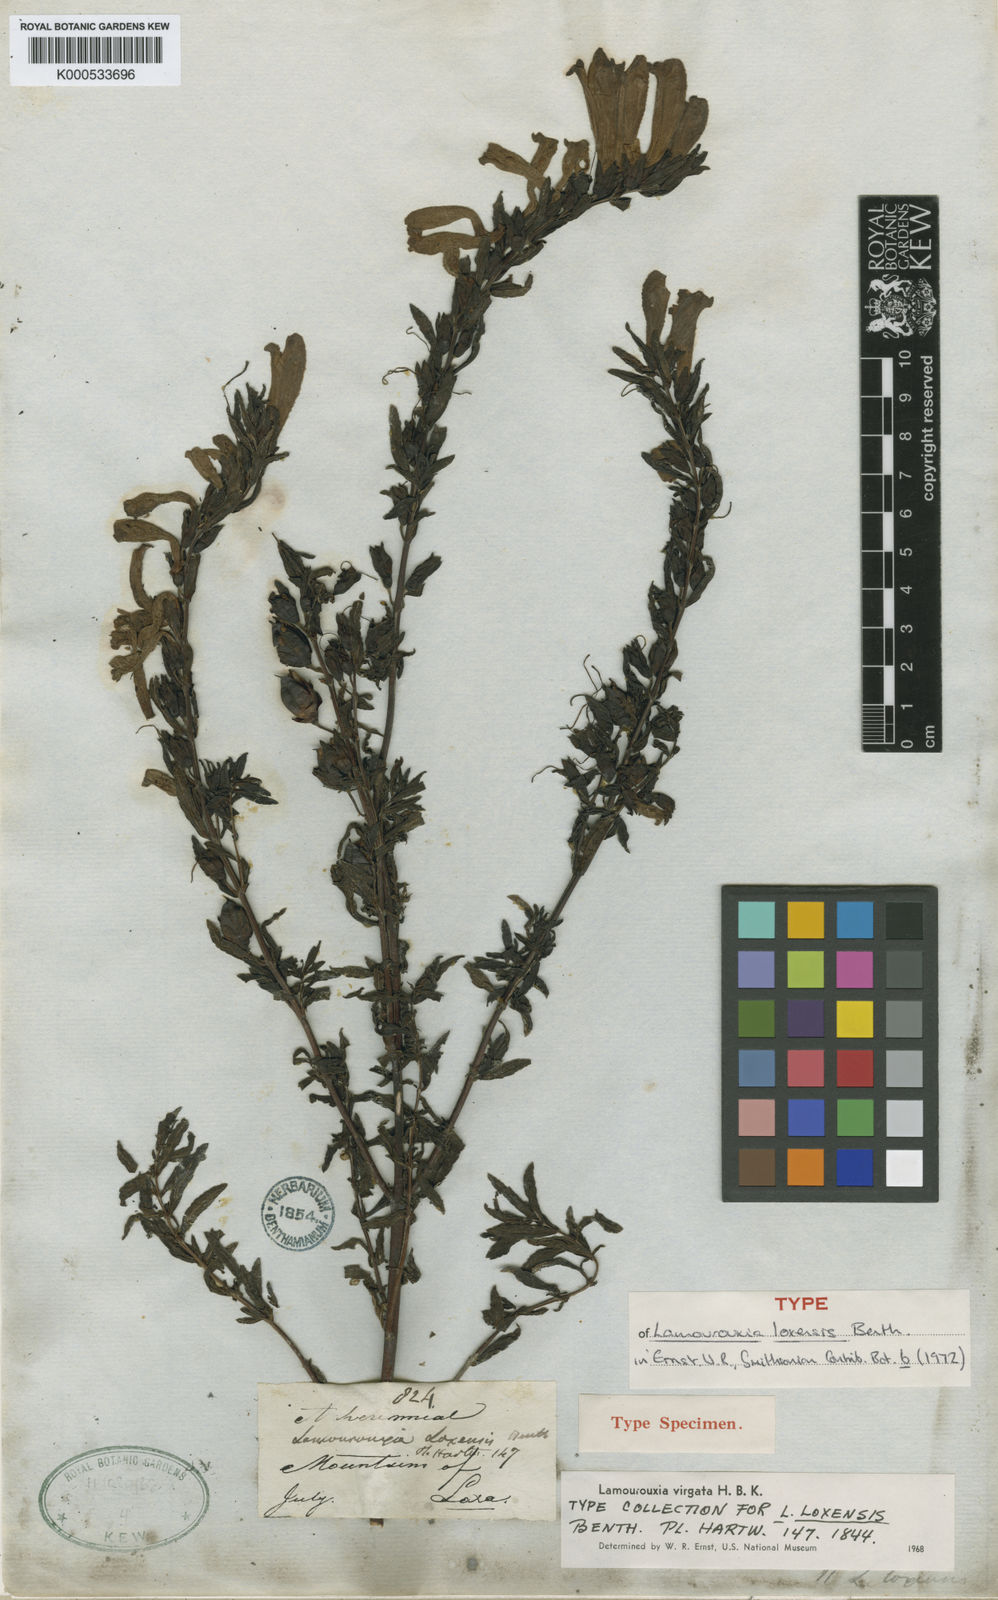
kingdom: Plantae
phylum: Tracheophyta
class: Magnoliopsida
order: Lamiales
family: Orobanchaceae
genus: Lamourouxia
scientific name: Lamourouxia virgata
